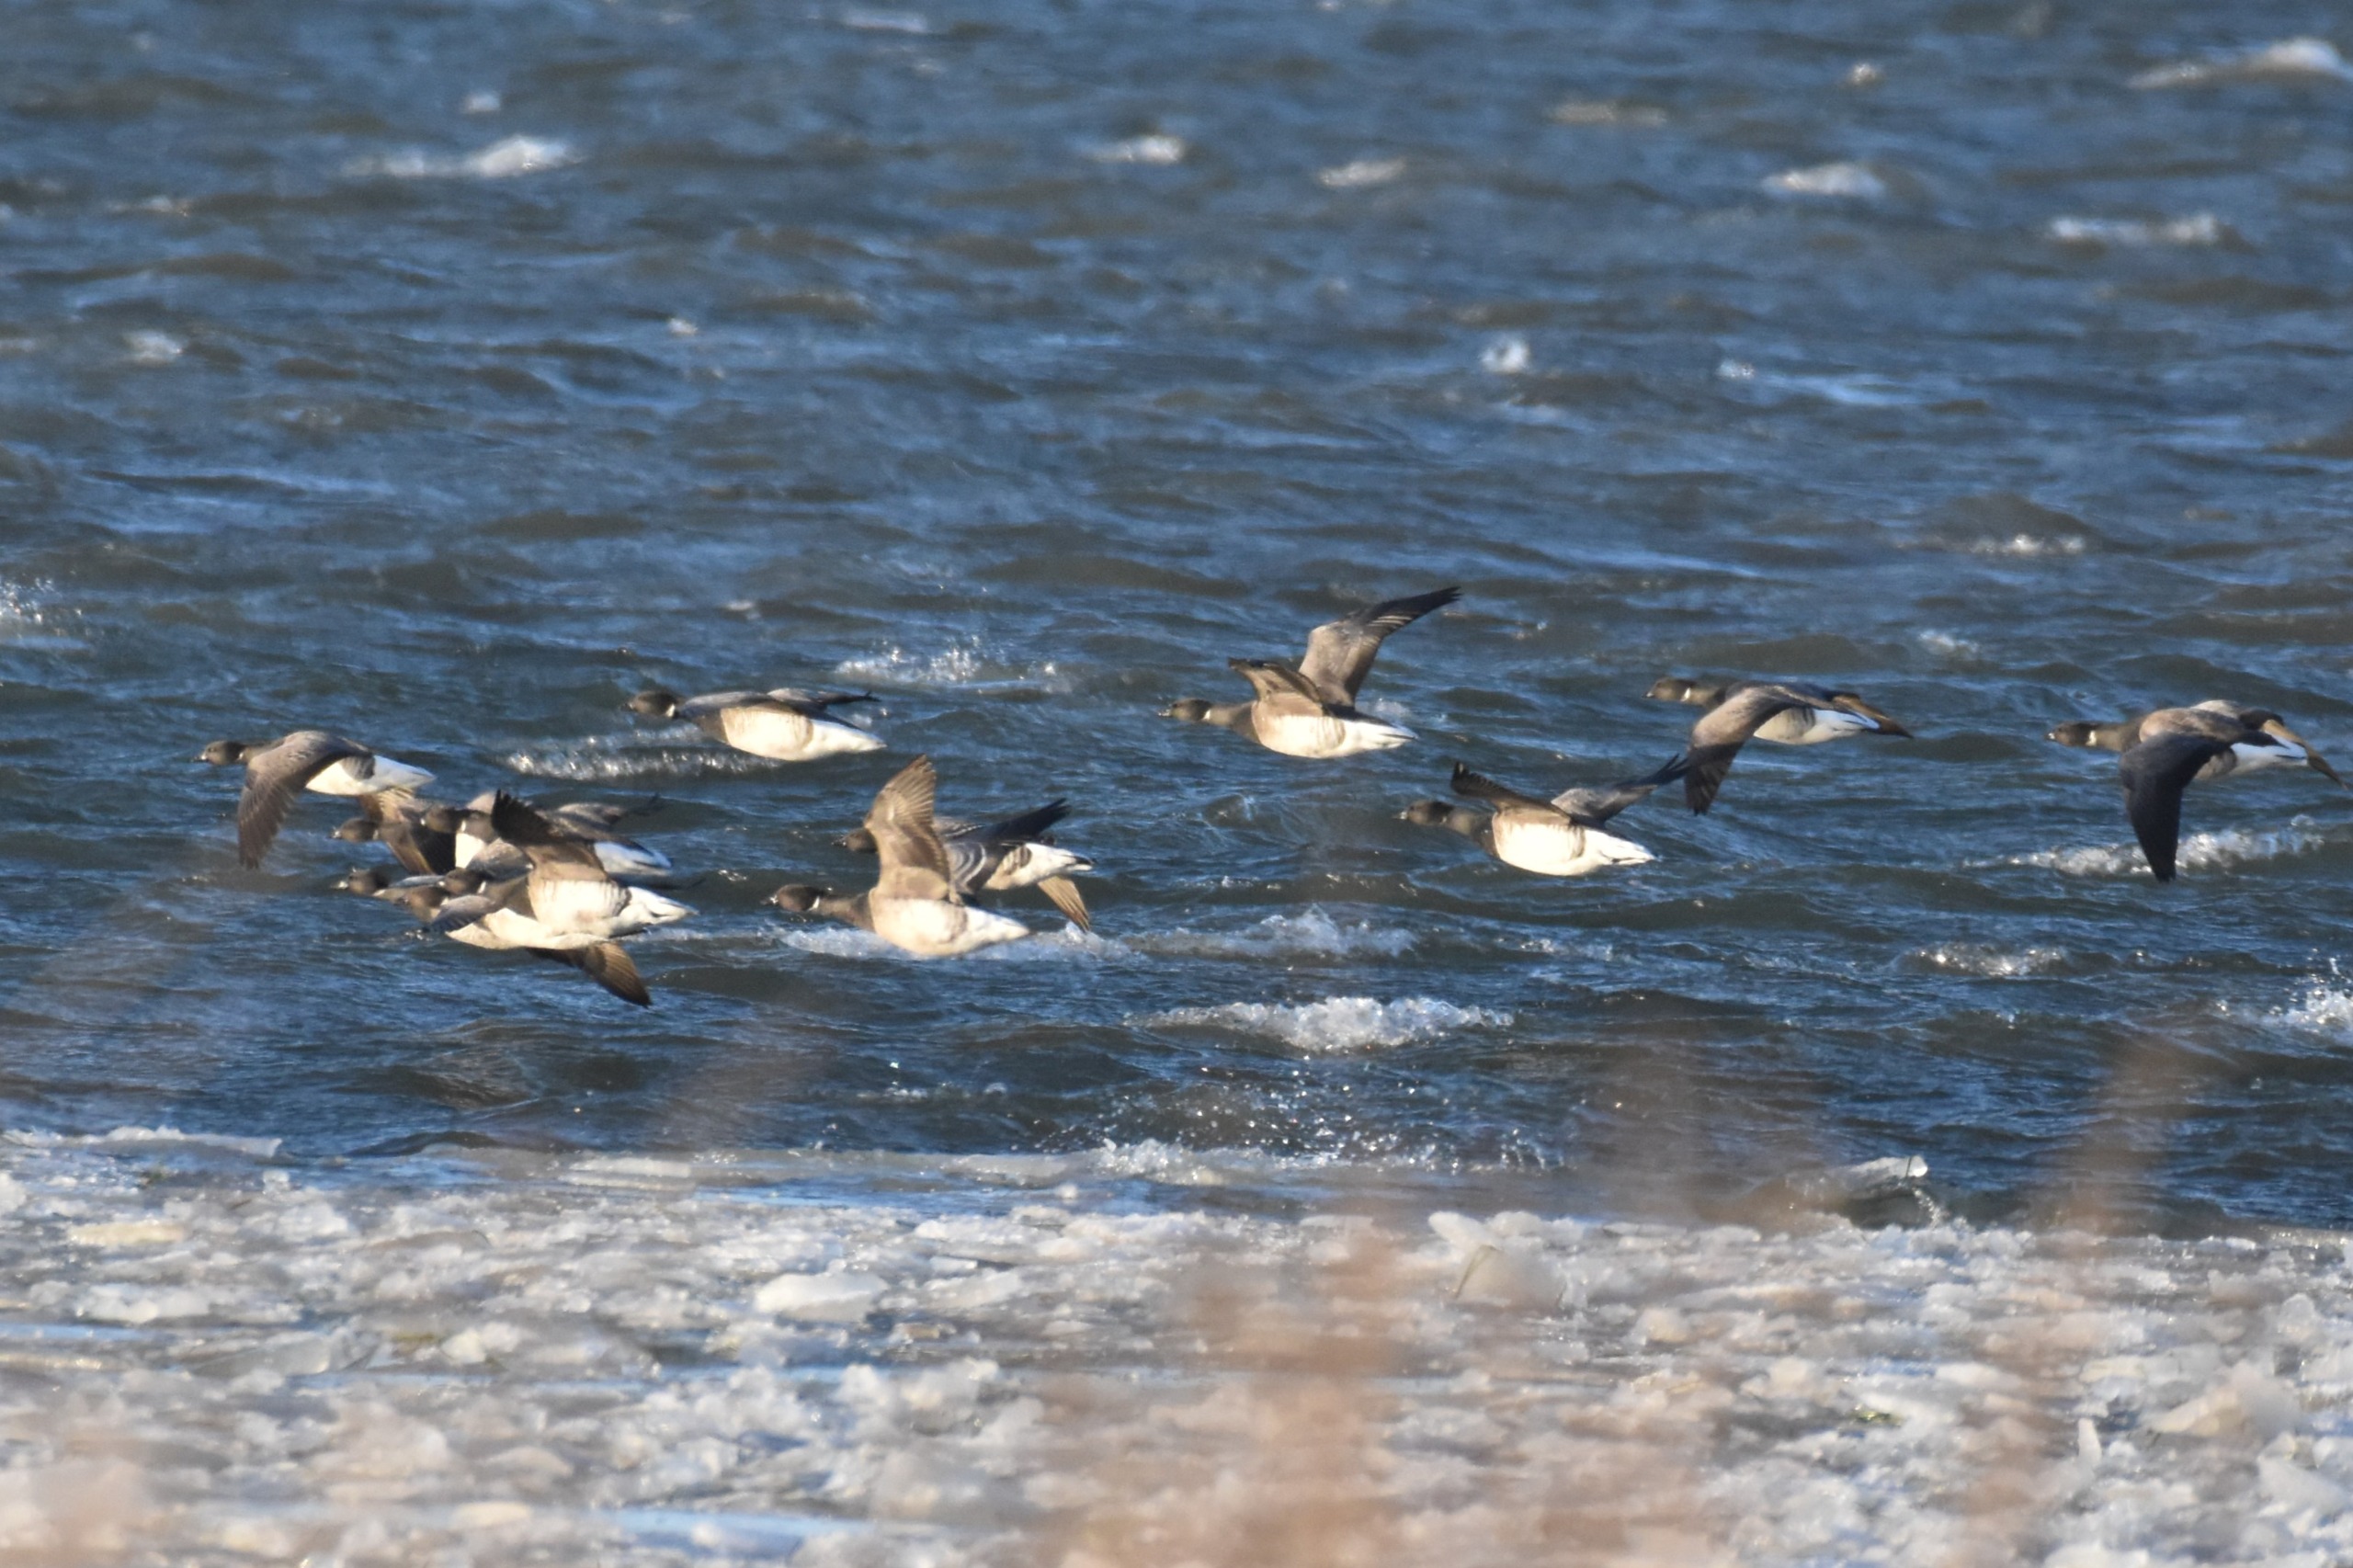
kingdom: Animalia
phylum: Chordata
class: Aves
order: Anseriformes
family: Anatidae
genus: Branta
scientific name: Branta bernicla
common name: Lysbuget knortegås
